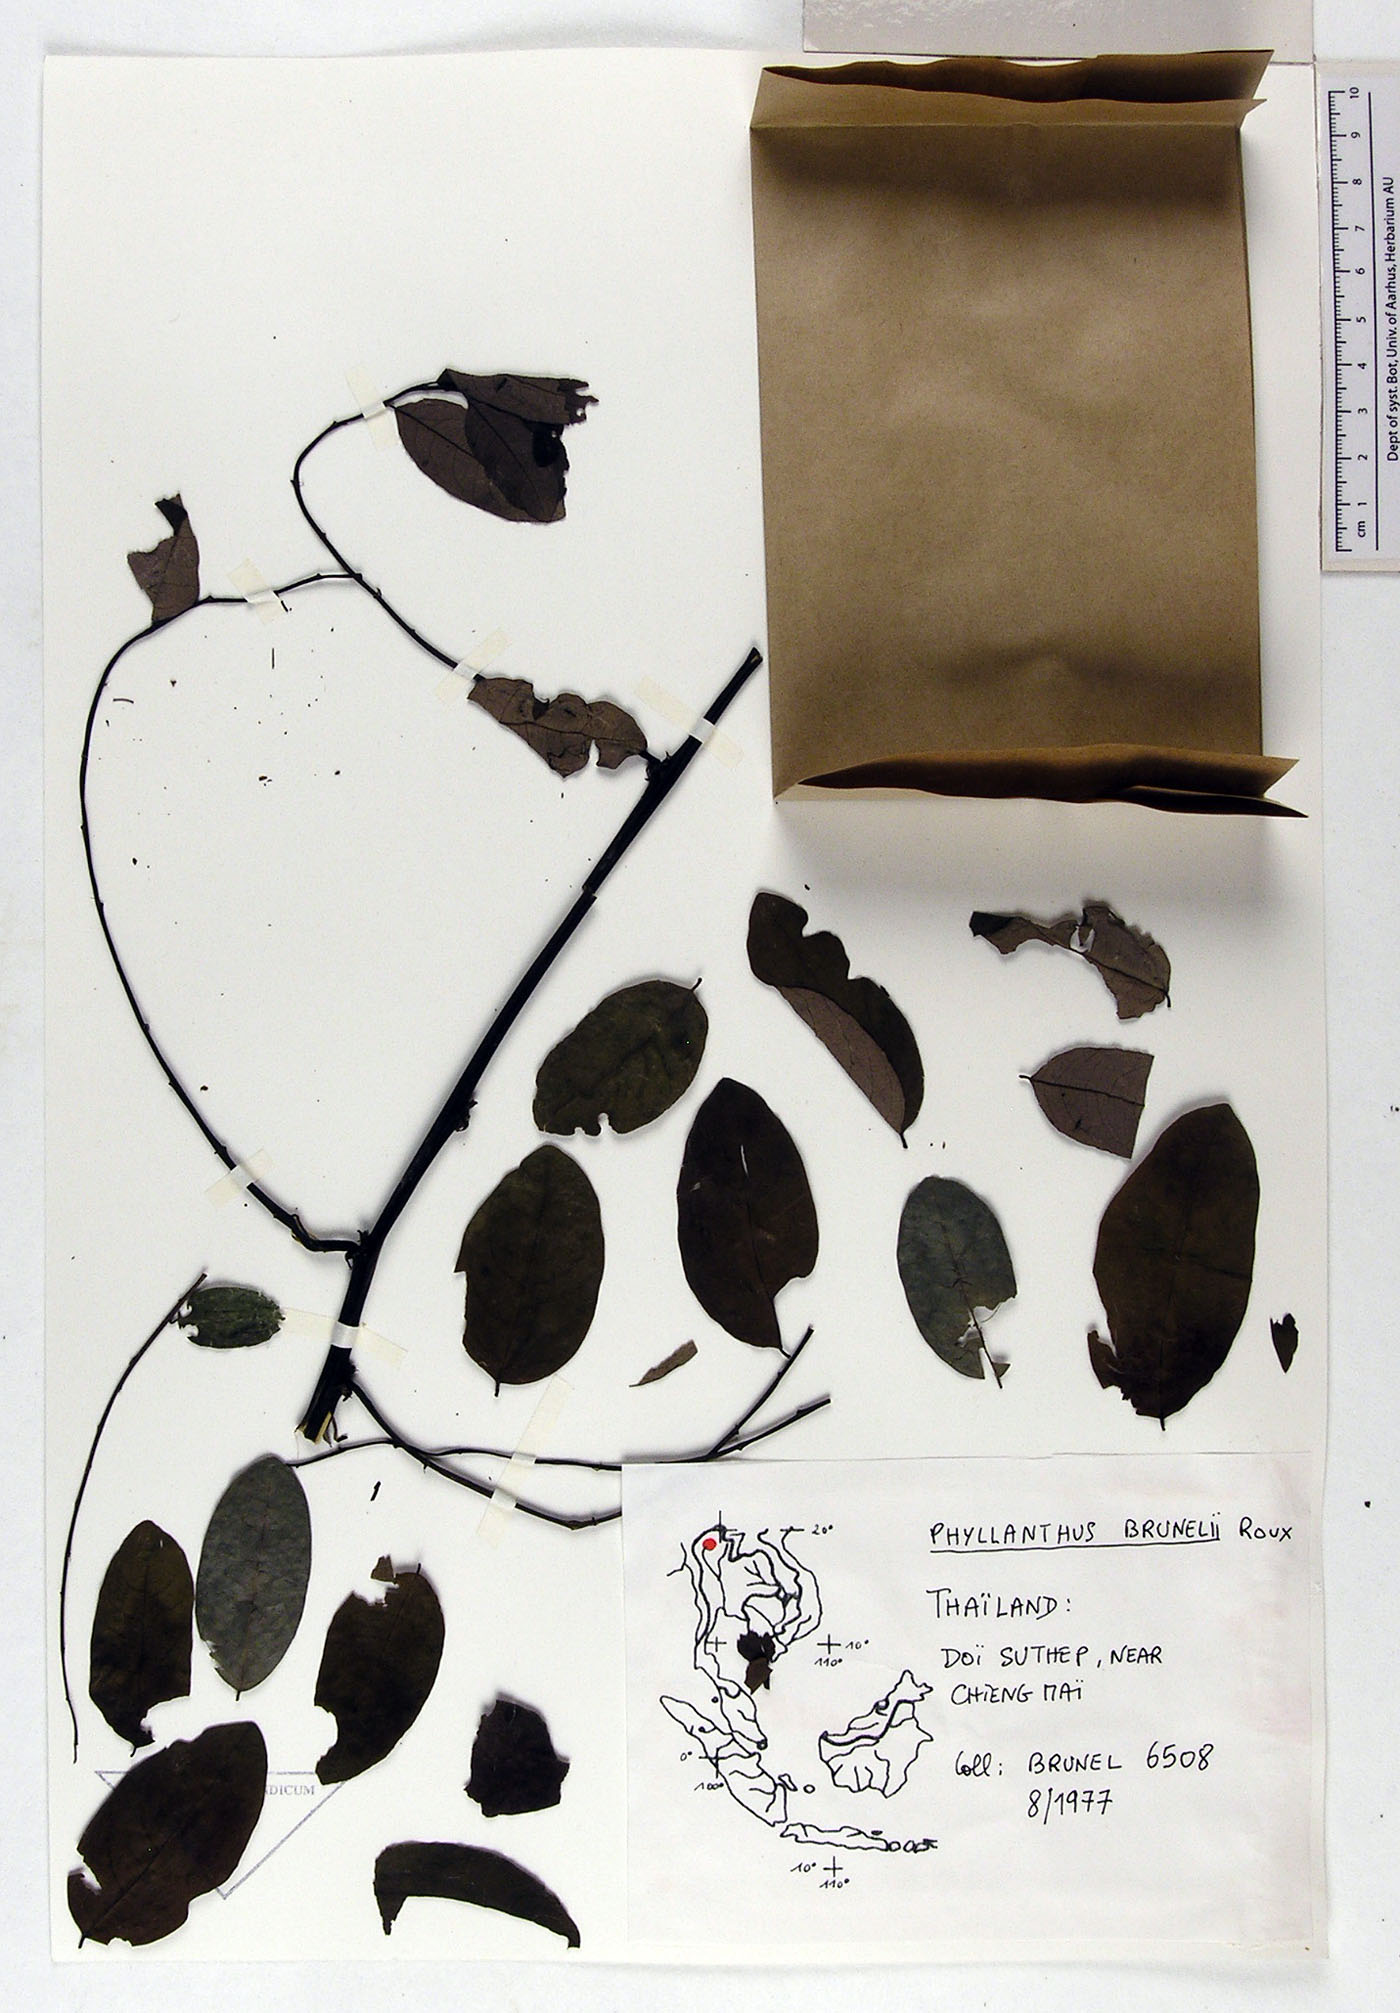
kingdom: Plantae
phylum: Tracheophyta
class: Magnoliopsida
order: Malpighiales
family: Phyllanthaceae
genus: Phyllanthus
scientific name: Phyllanthus microcarpus
